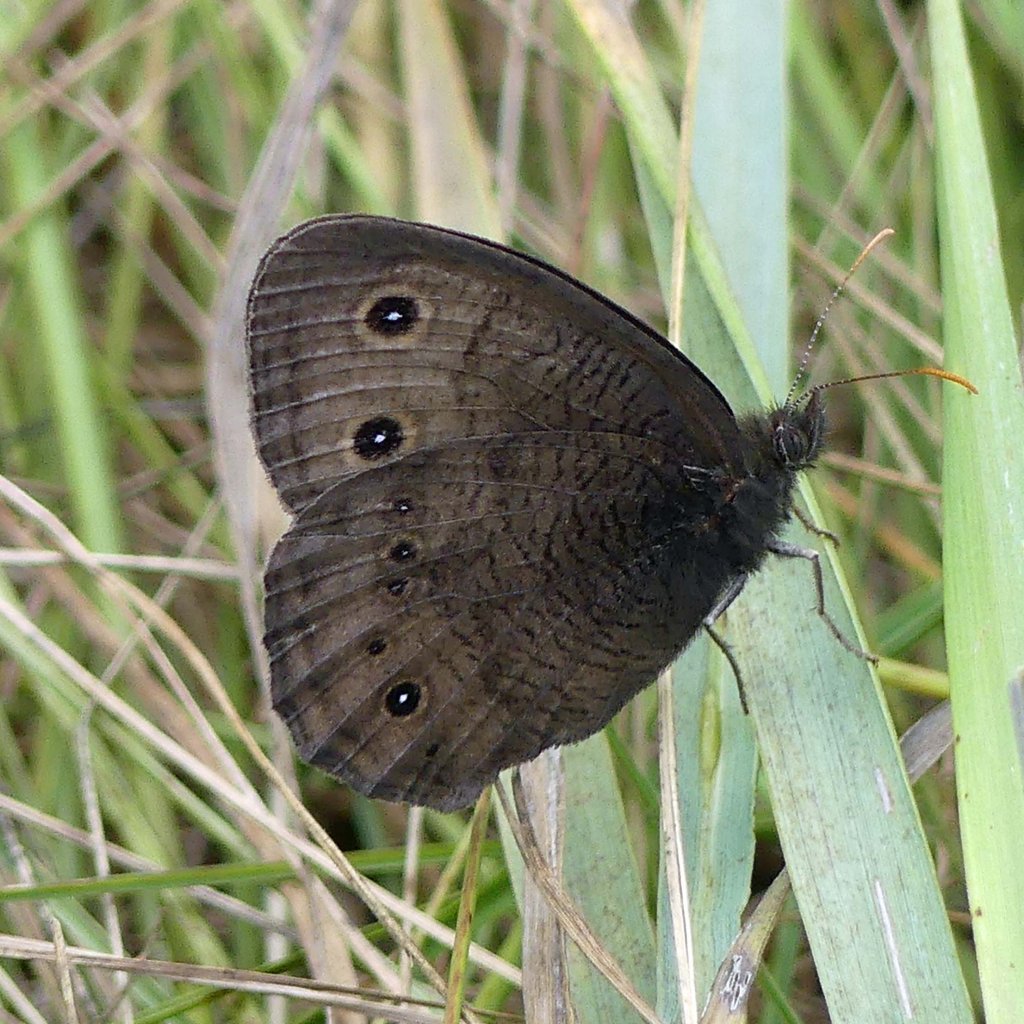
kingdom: Animalia
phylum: Arthropoda
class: Insecta
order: Lepidoptera
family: Nymphalidae
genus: Cercyonis
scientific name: Cercyonis pegala
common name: Common Wood-Nymph
